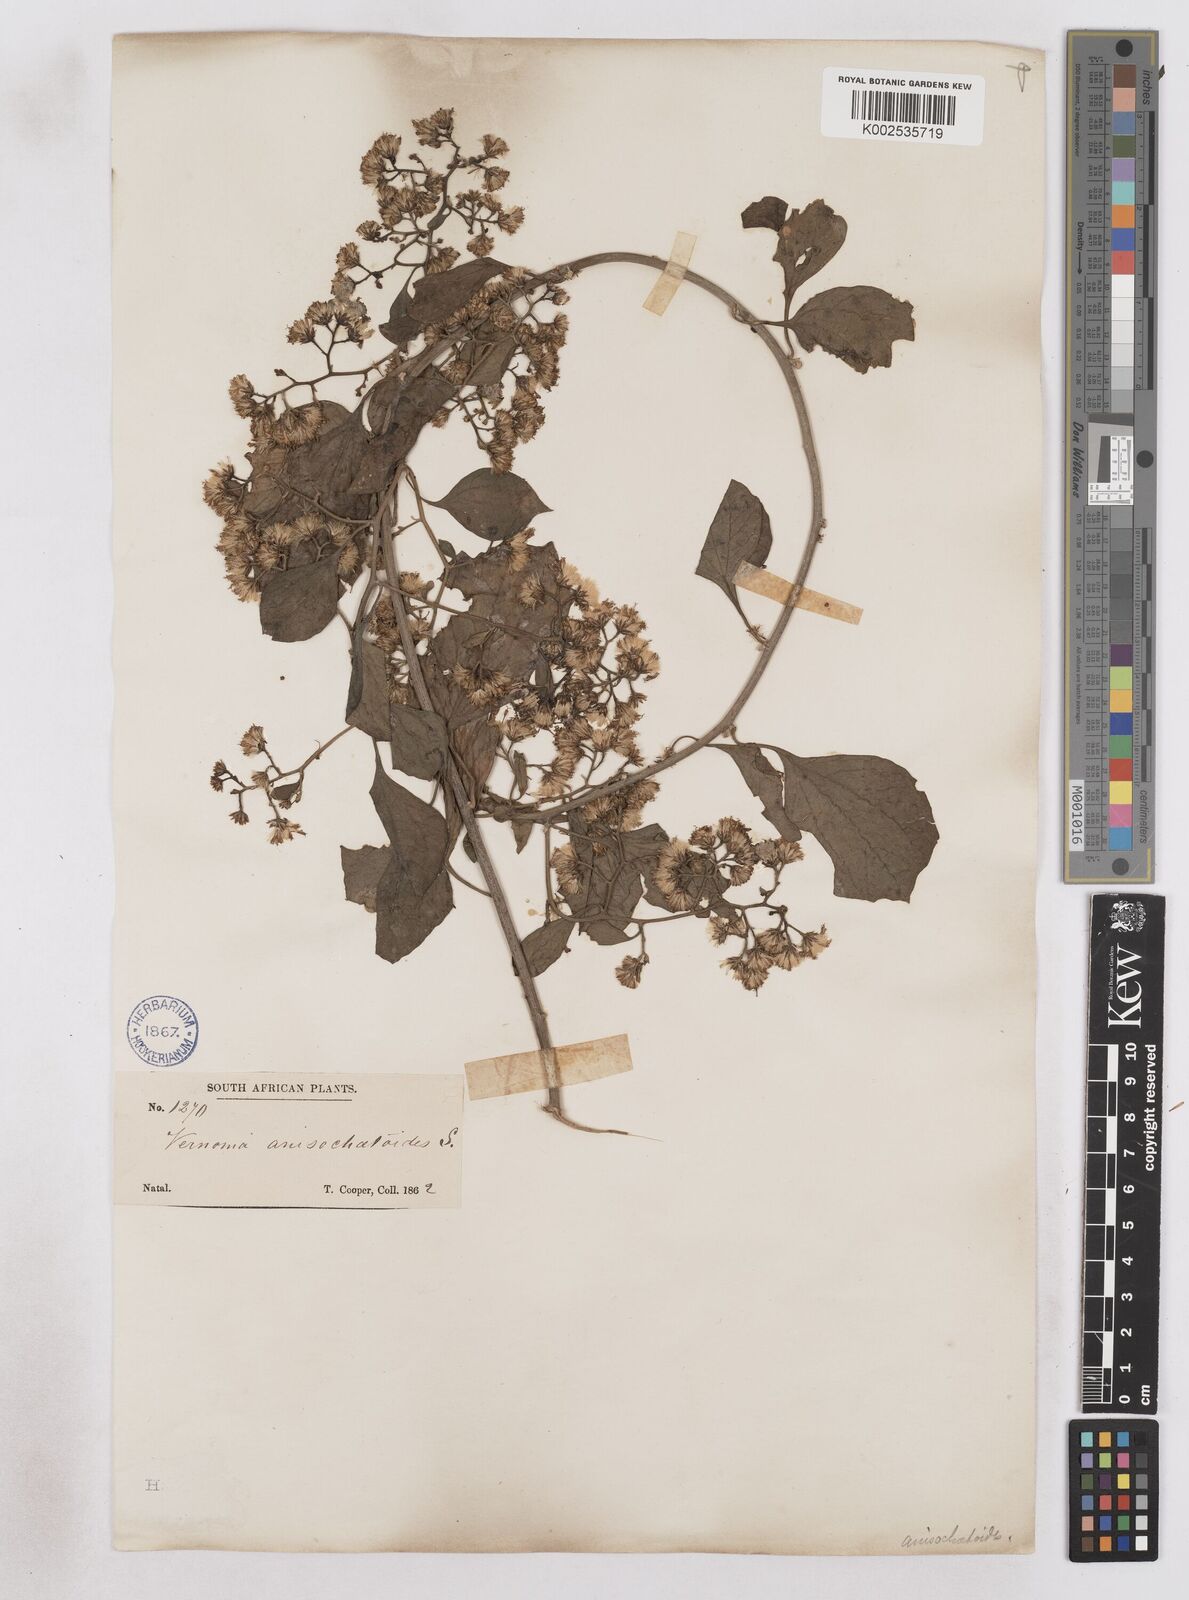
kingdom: Plantae
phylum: Tracheophyta
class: Magnoliopsida
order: Asterales
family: Asteraceae
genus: Distephanus
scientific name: Distephanus anisochaetoides
